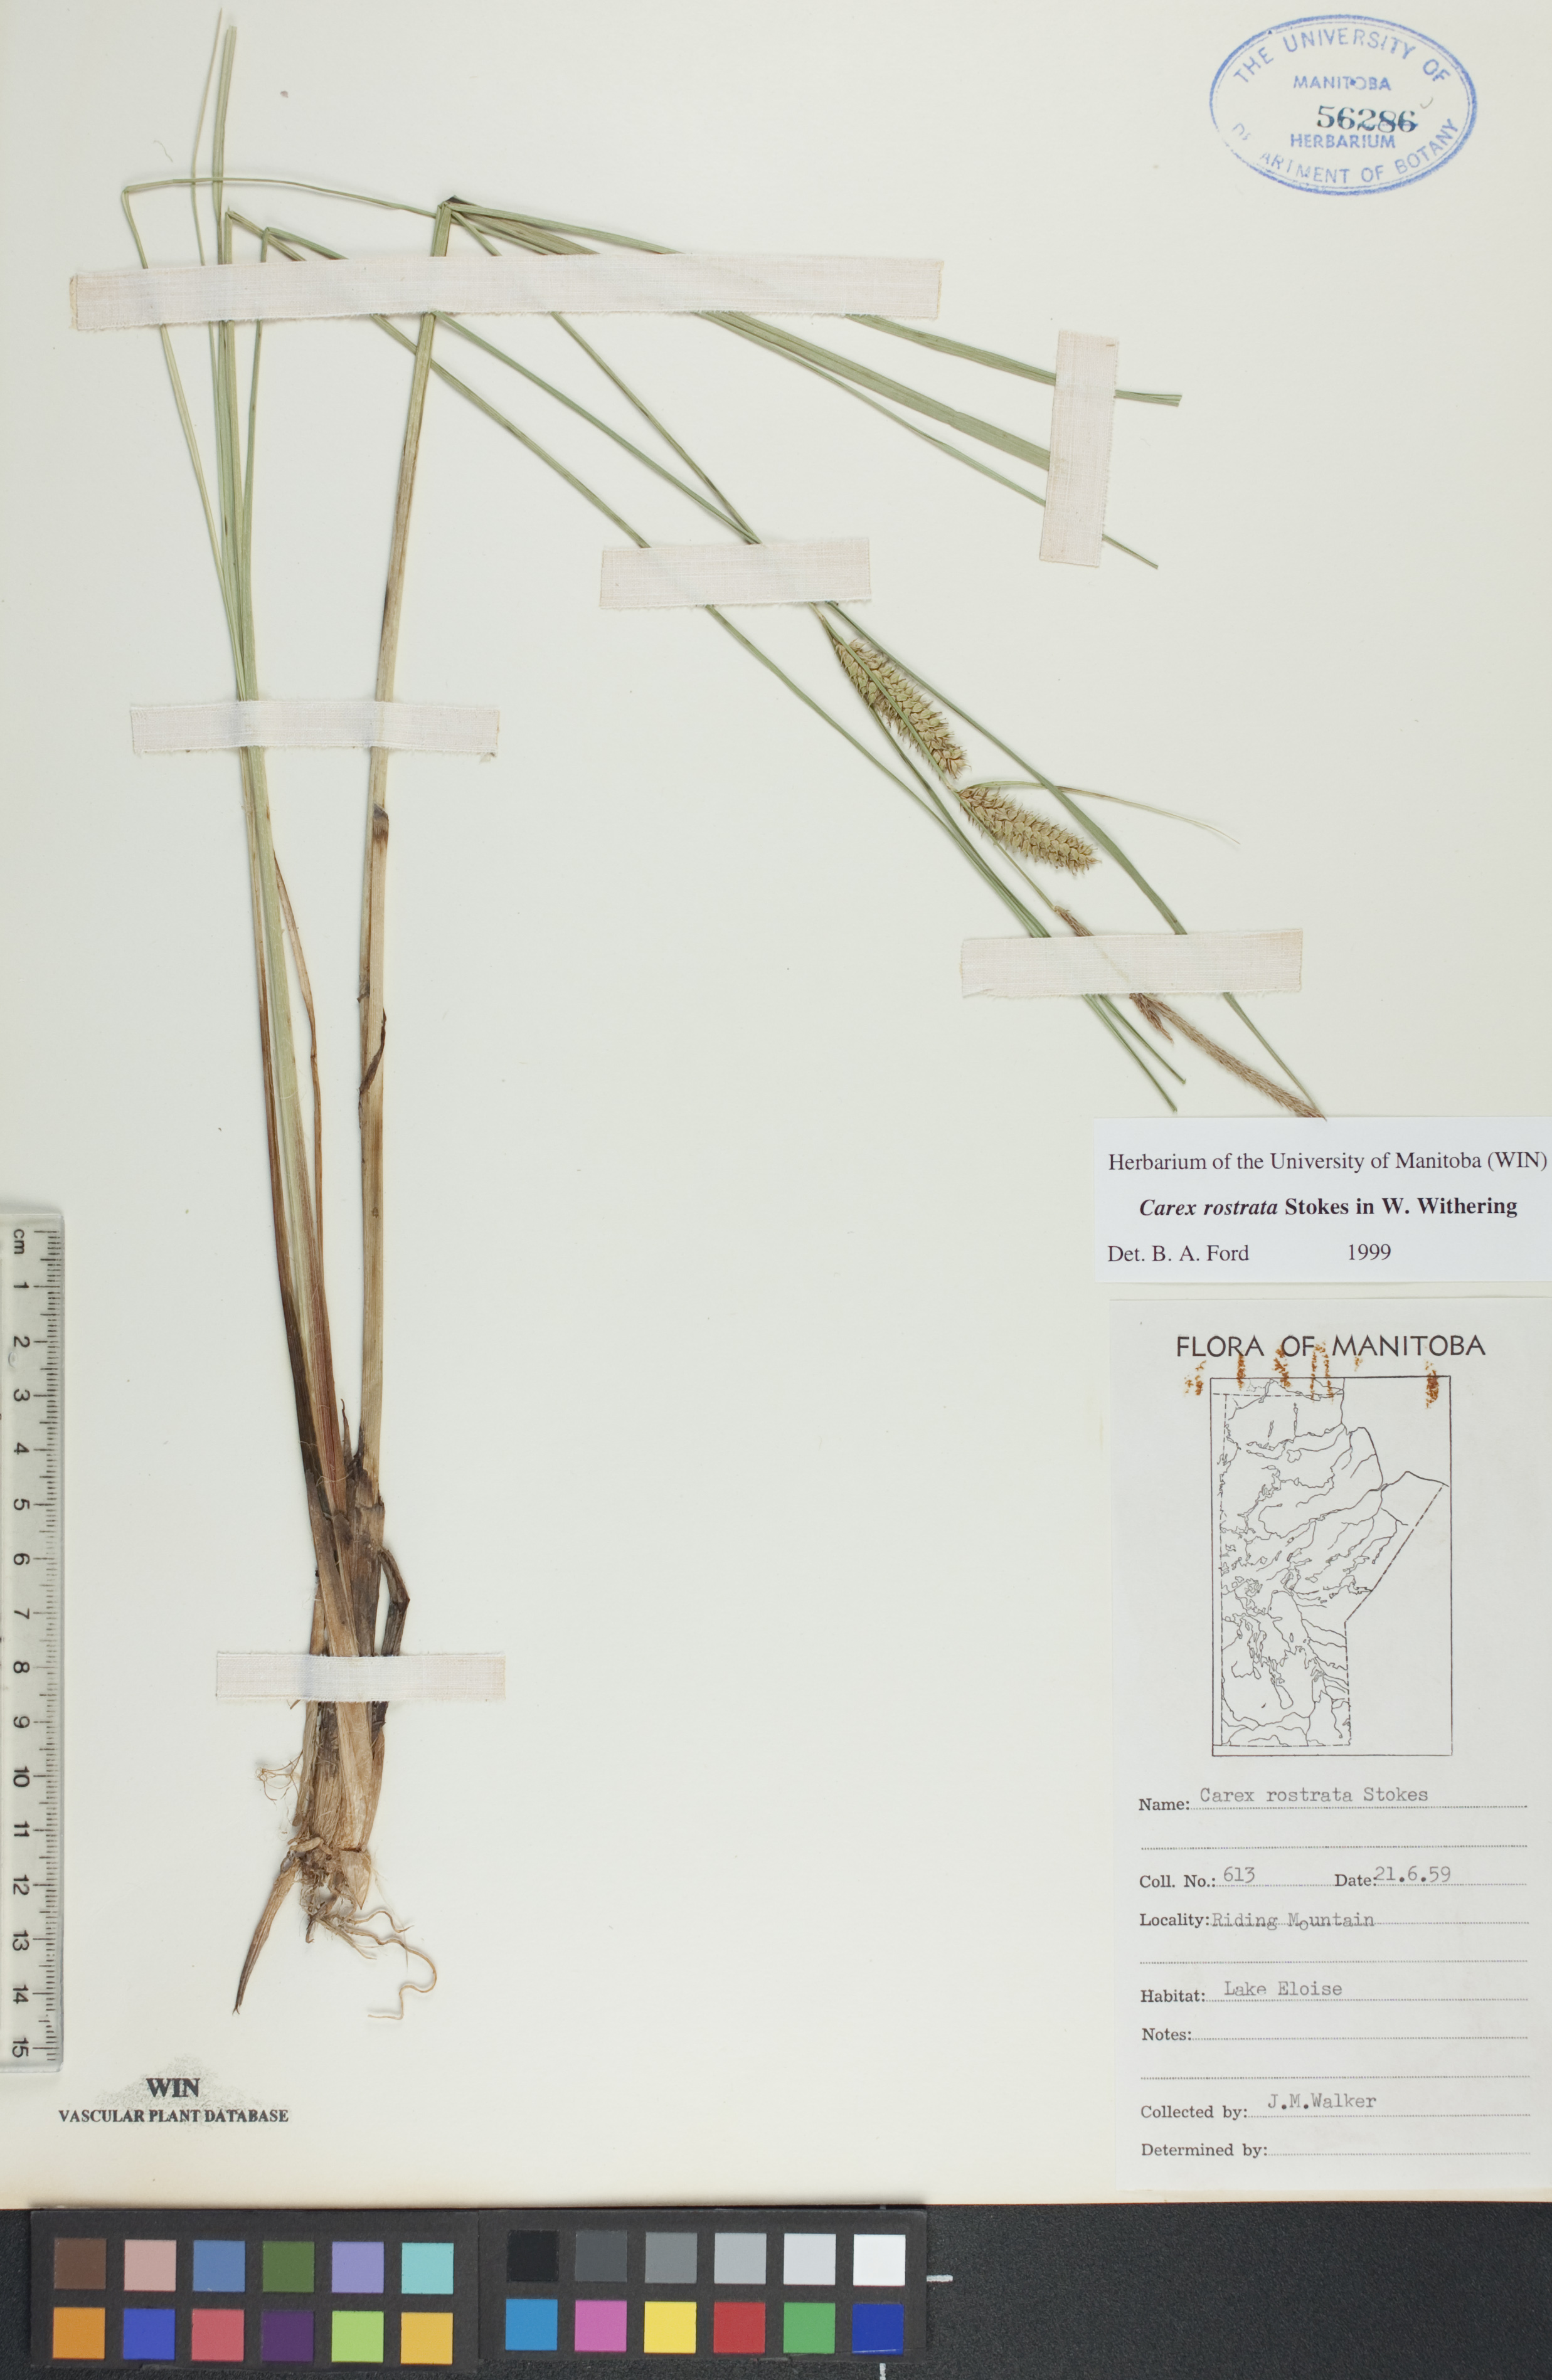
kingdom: Plantae
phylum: Tracheophyta
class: Liliopsida
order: Poales
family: Cyperaceae
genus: Carex
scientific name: Carex rostrata
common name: Bottle sedge
